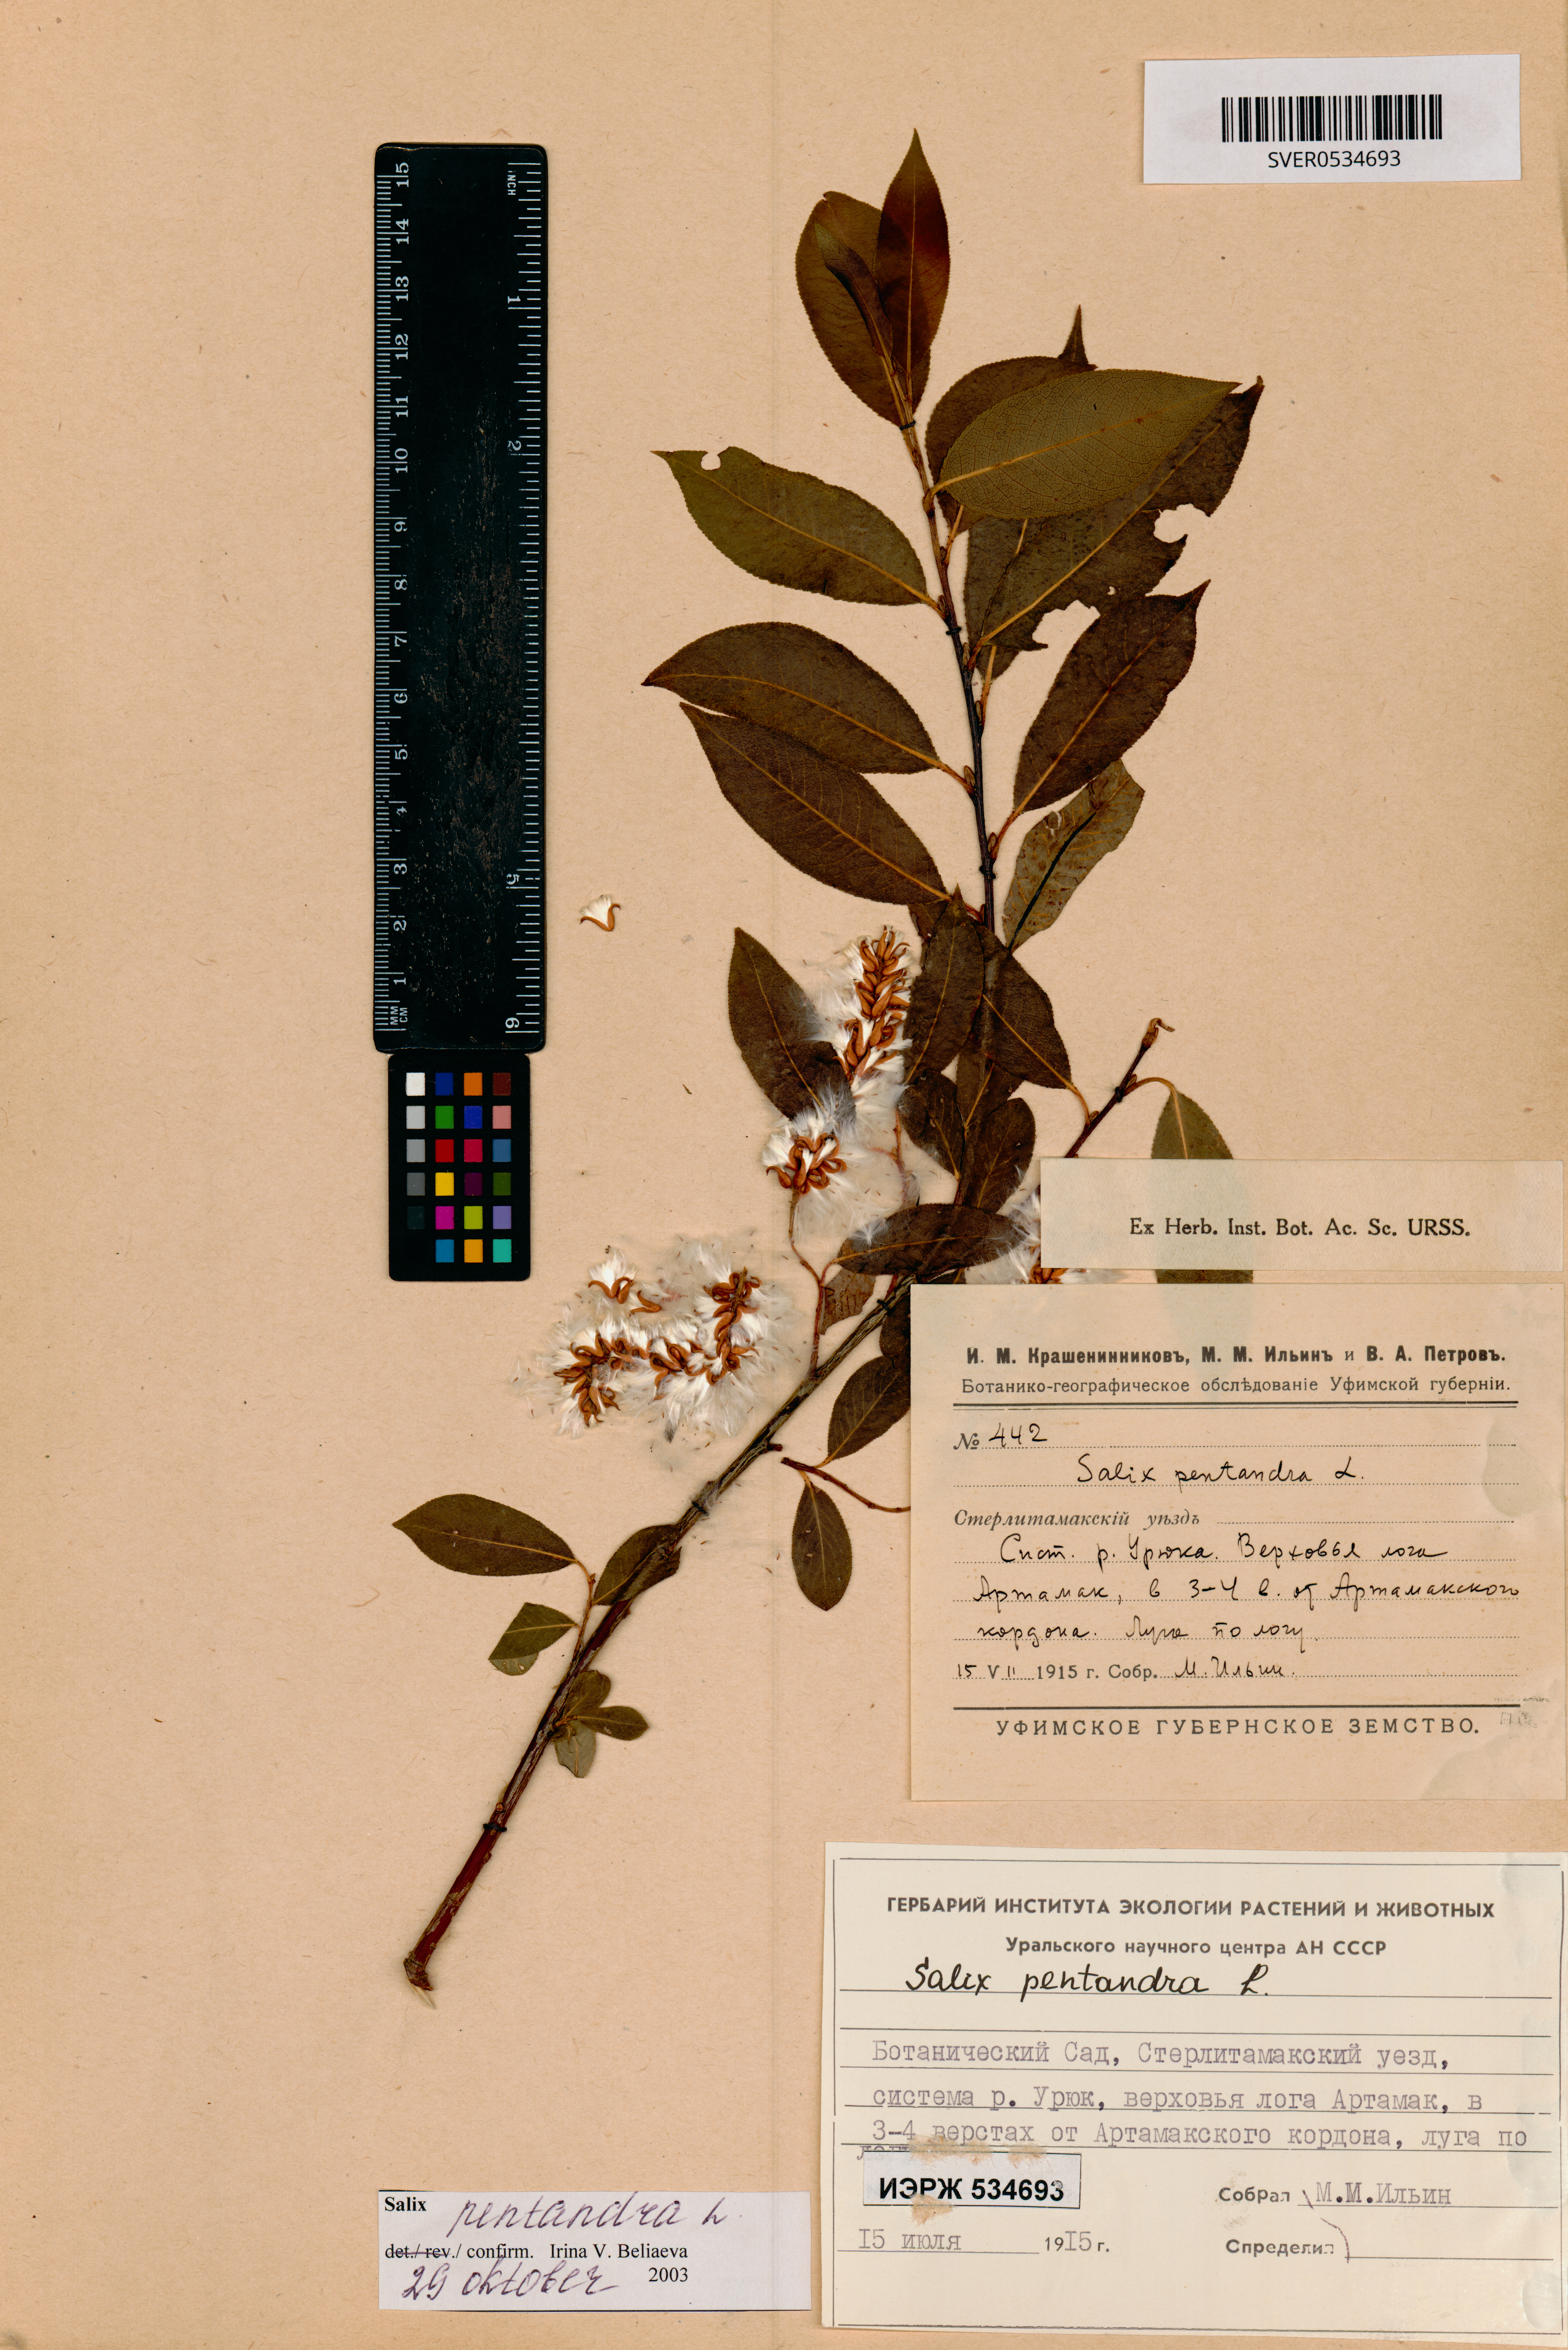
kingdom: Plantae
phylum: Tracheophyta
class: Magnoliopsida
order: Malpighiales
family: Salicaceae
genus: Salix
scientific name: Salix pentandra
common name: Bay willow
